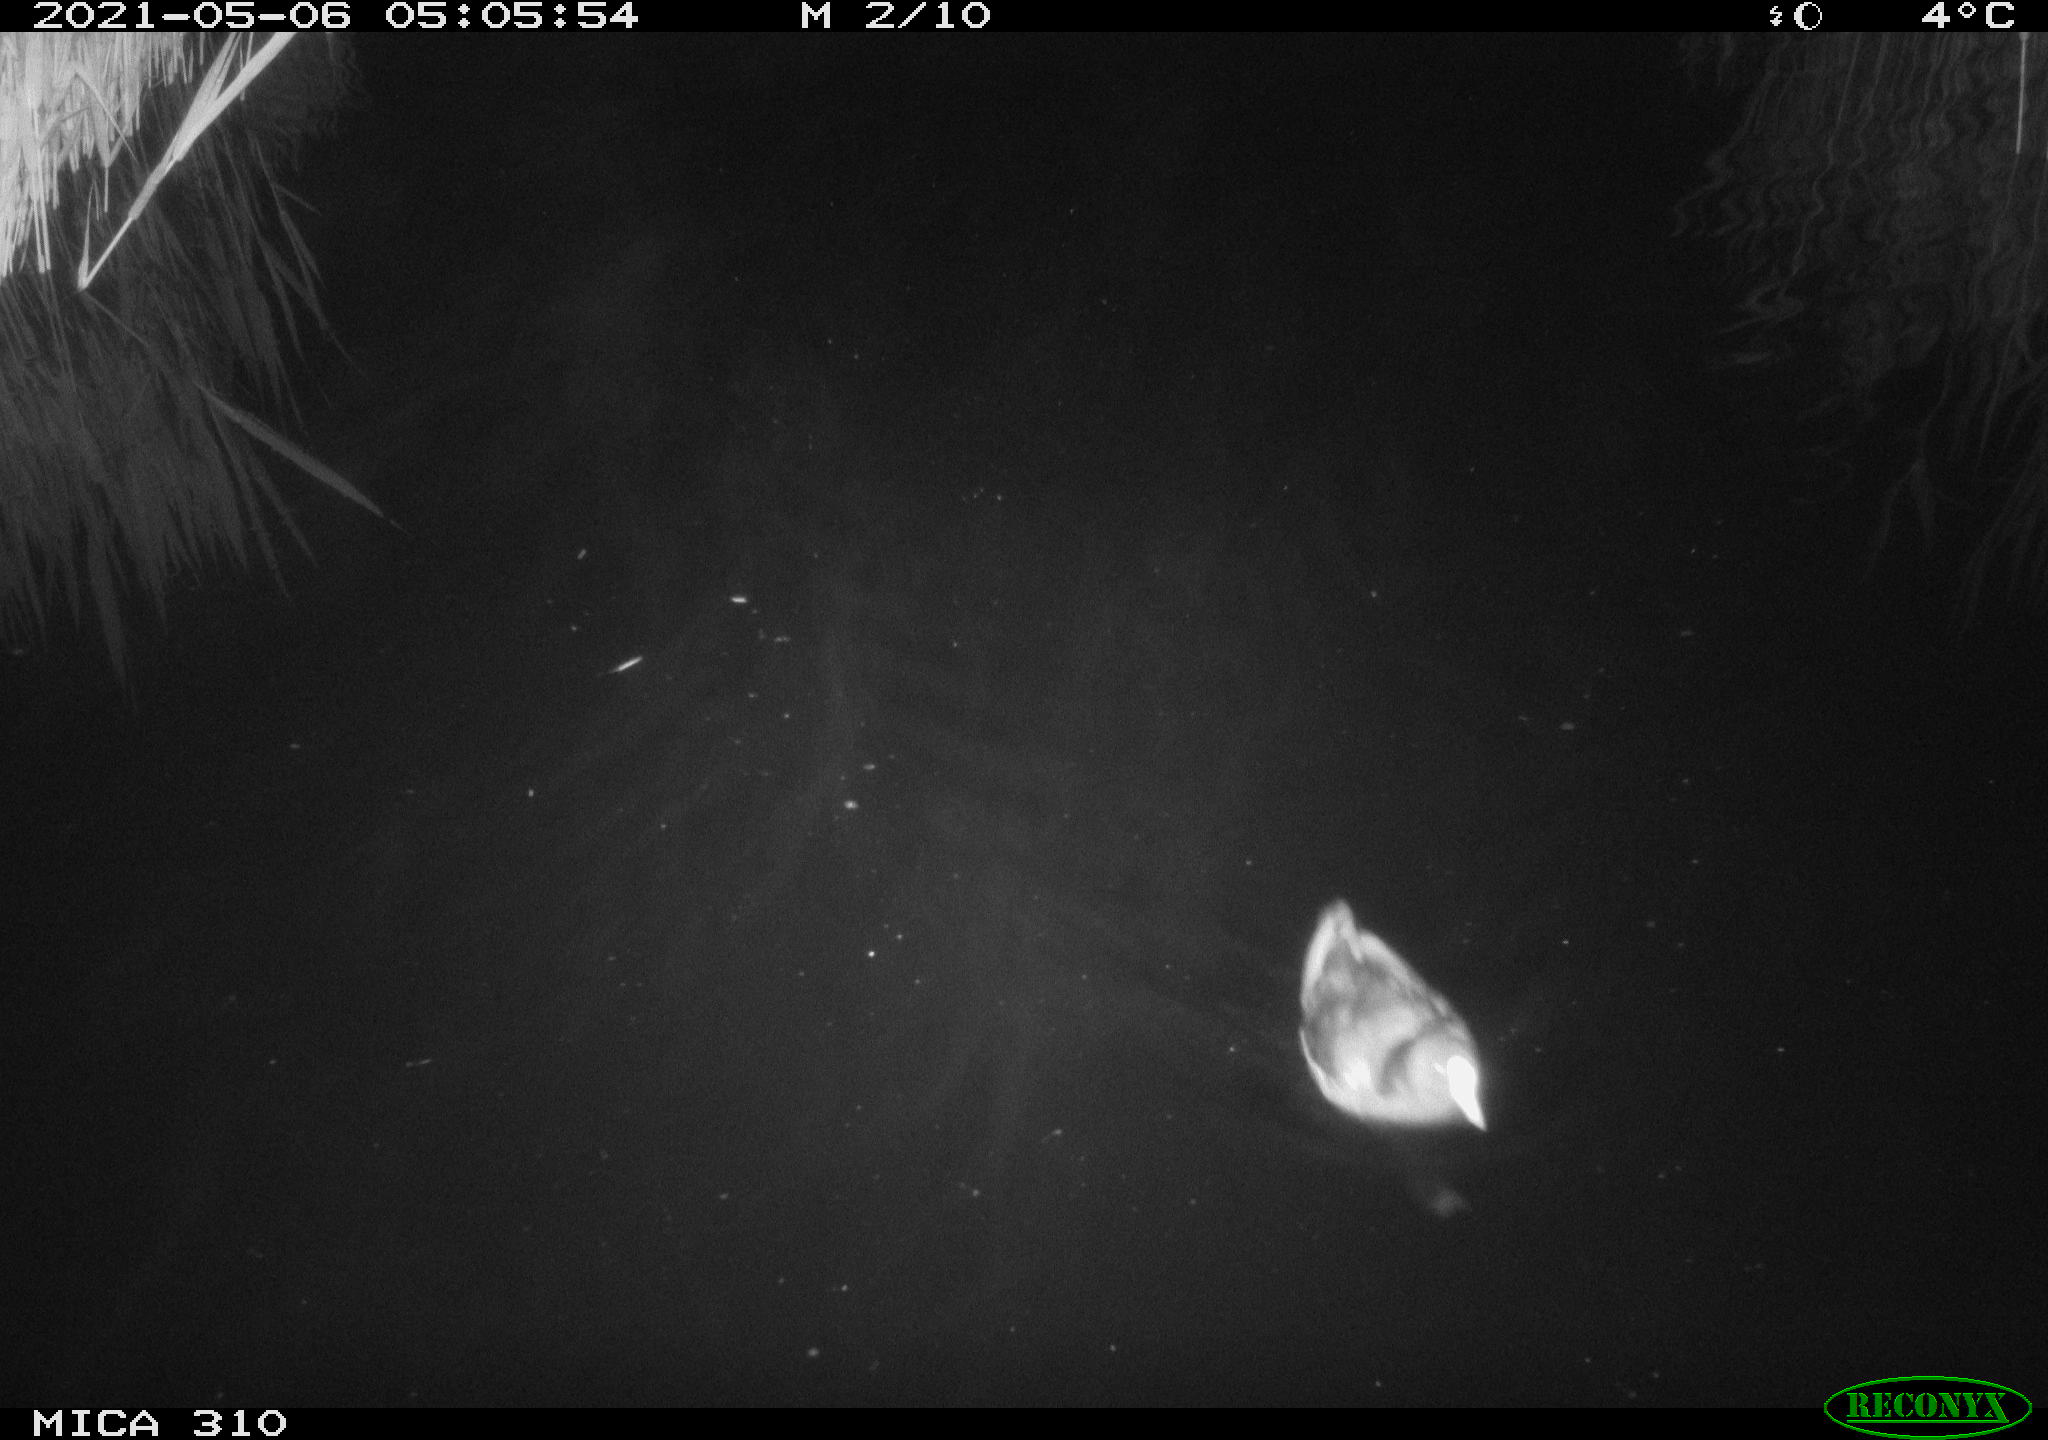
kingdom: Animalia
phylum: Chordata
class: Aves
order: Gruiformes
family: Rallidae
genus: Fulica
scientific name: Fulica atra
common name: Eurasian coot
